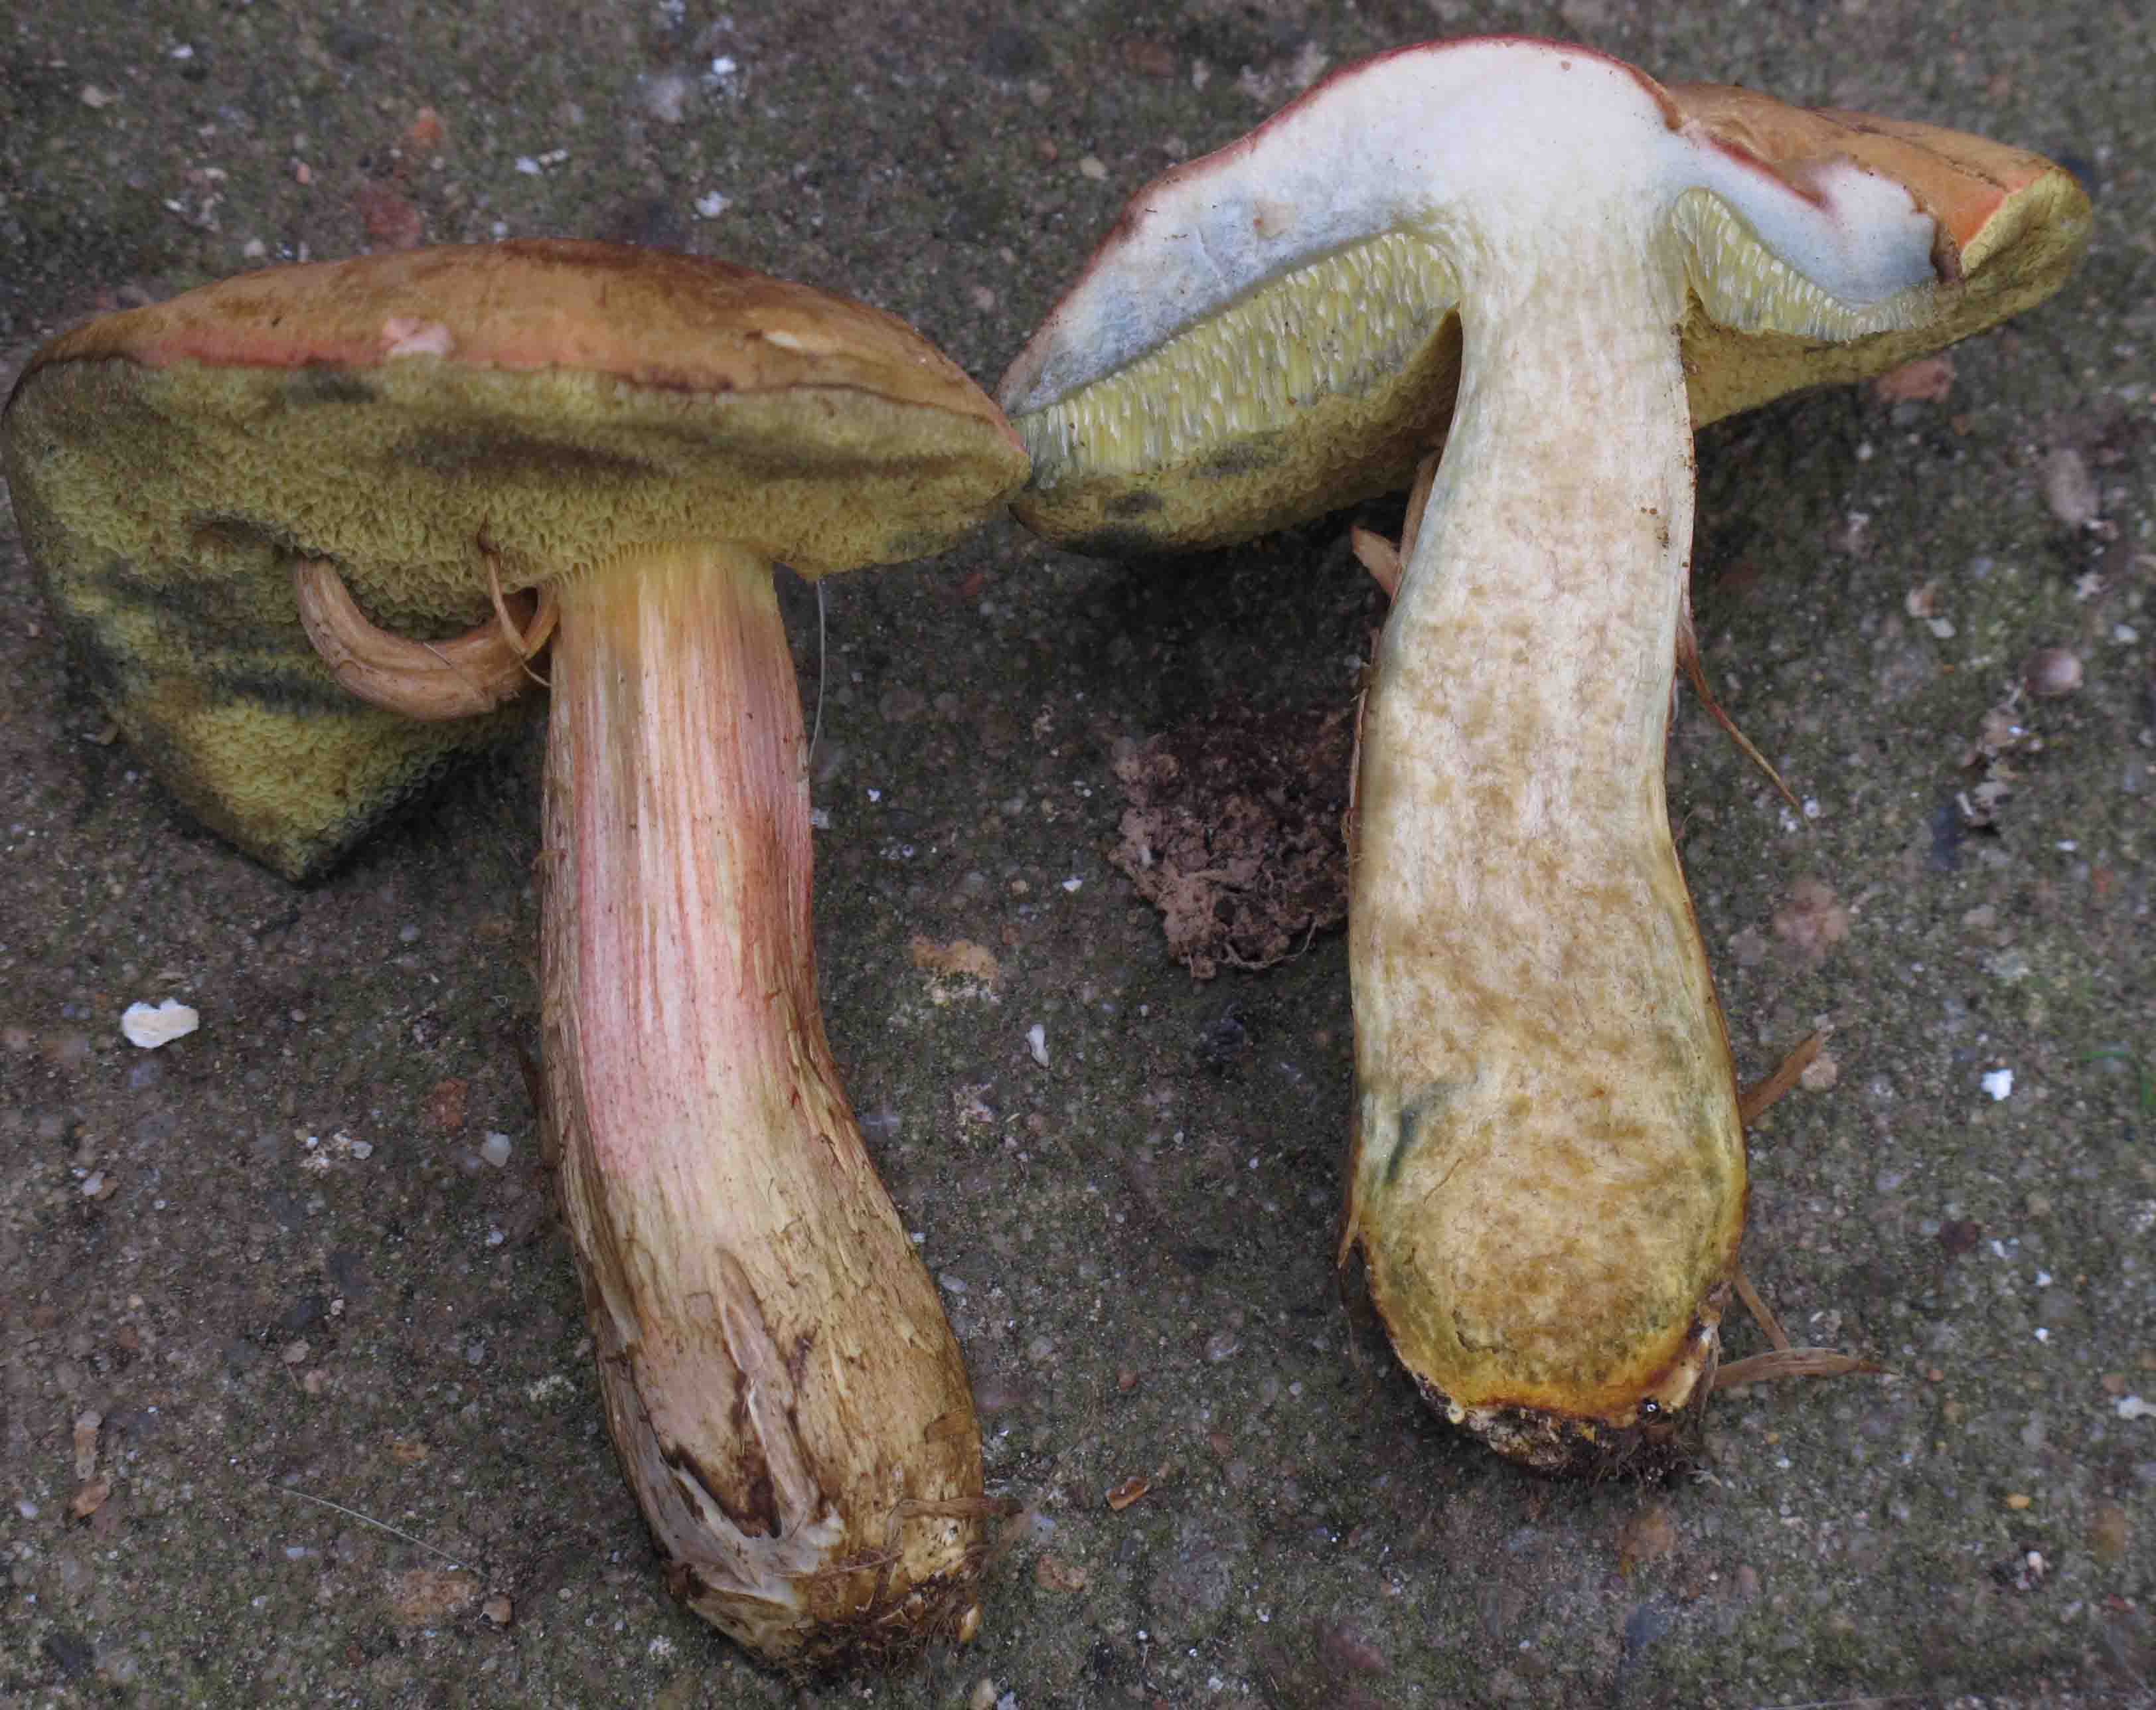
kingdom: Fungi
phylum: Basidiomycota
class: Agaricomycetes
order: Boletales
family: Boletaceae
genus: Hortiboletus
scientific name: Hortiboletus bubalinus
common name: aurora-rørhat
